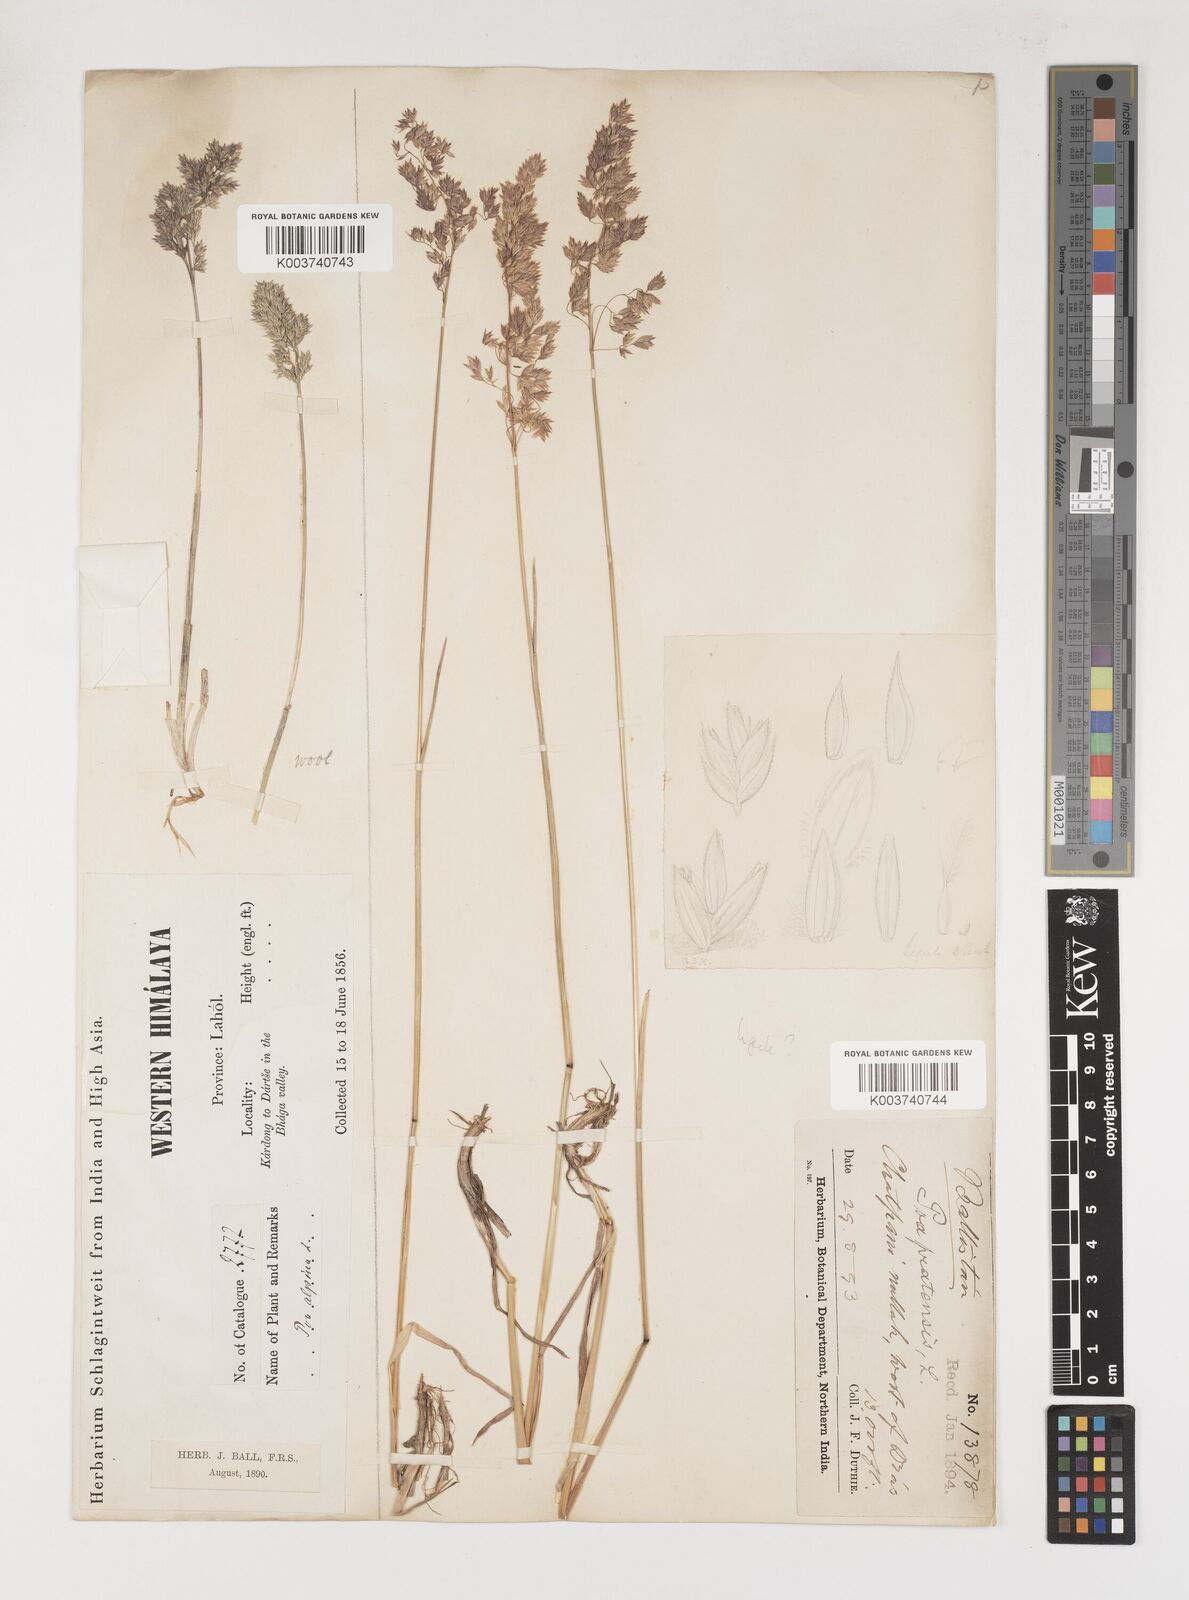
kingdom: Plantae
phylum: Tracheophyta
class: Liliopsida
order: Poales
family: Poaceae
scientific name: Poaceae
